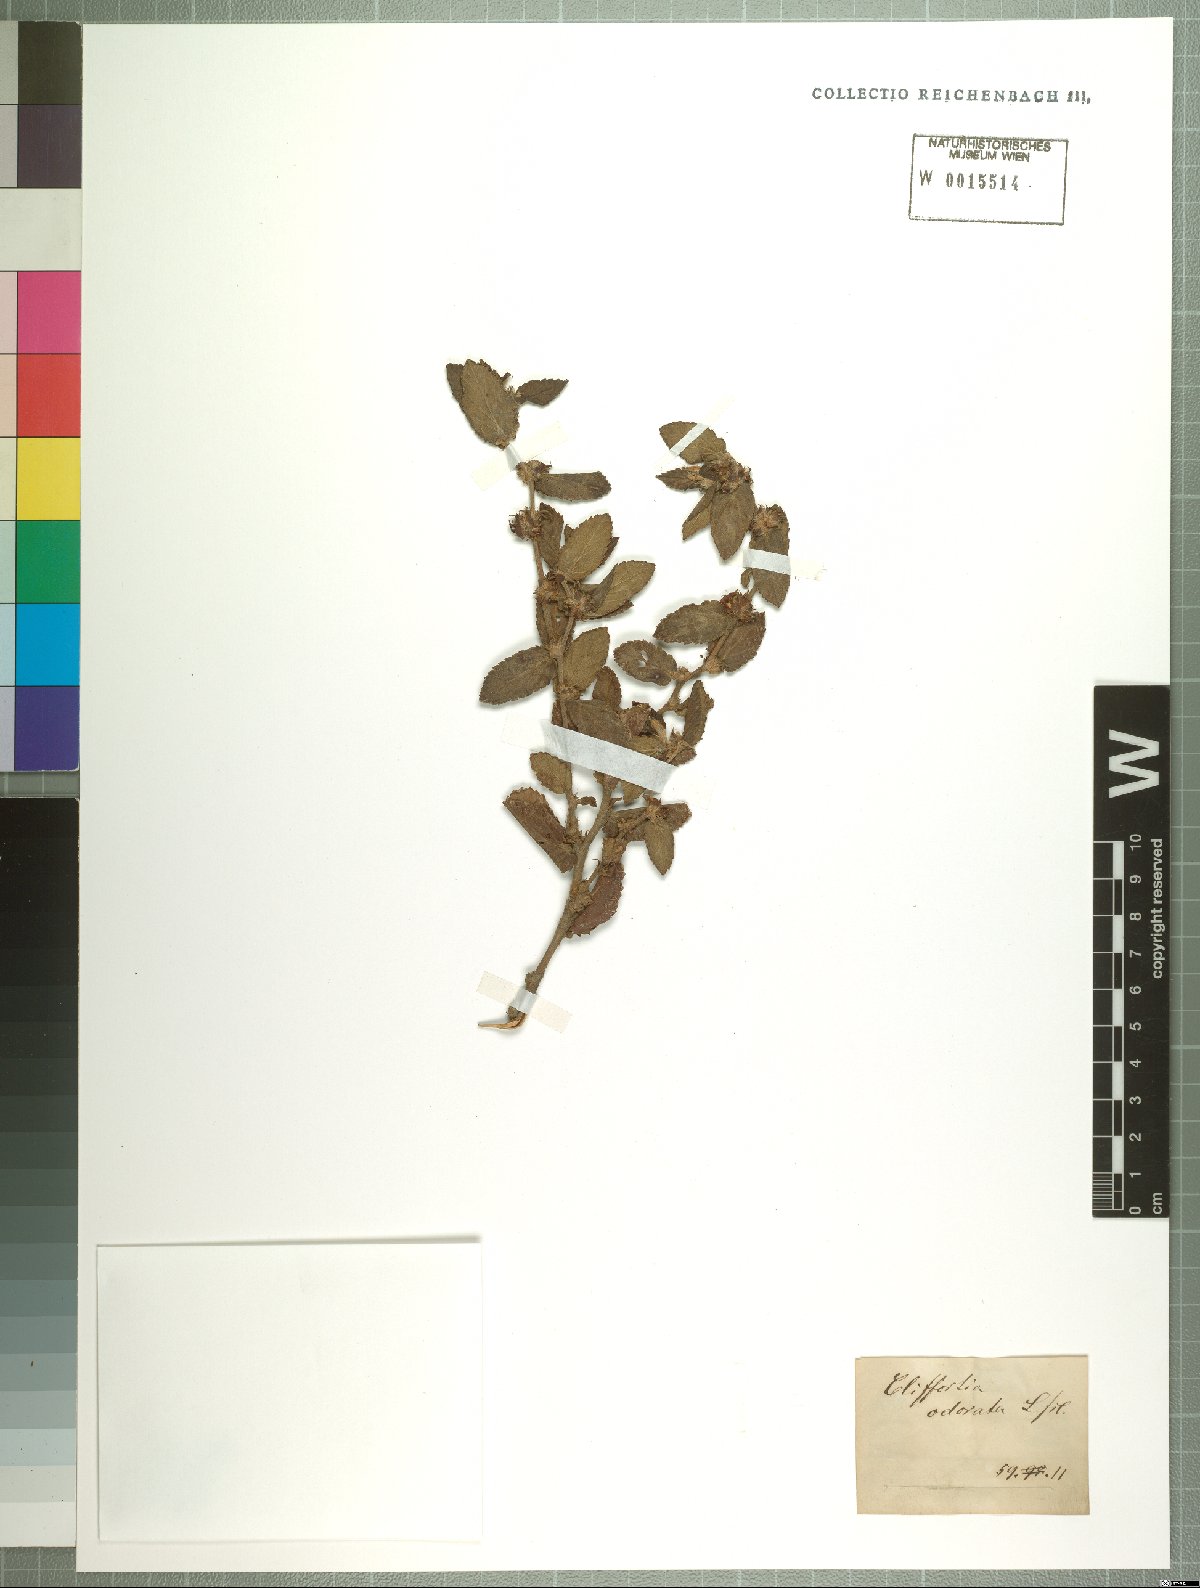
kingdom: Plantae
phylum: Tracheophyta
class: Magnoliopsida
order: Rosales
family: Rosaceae
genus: Cliffortia
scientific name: Cliffortia odorata
